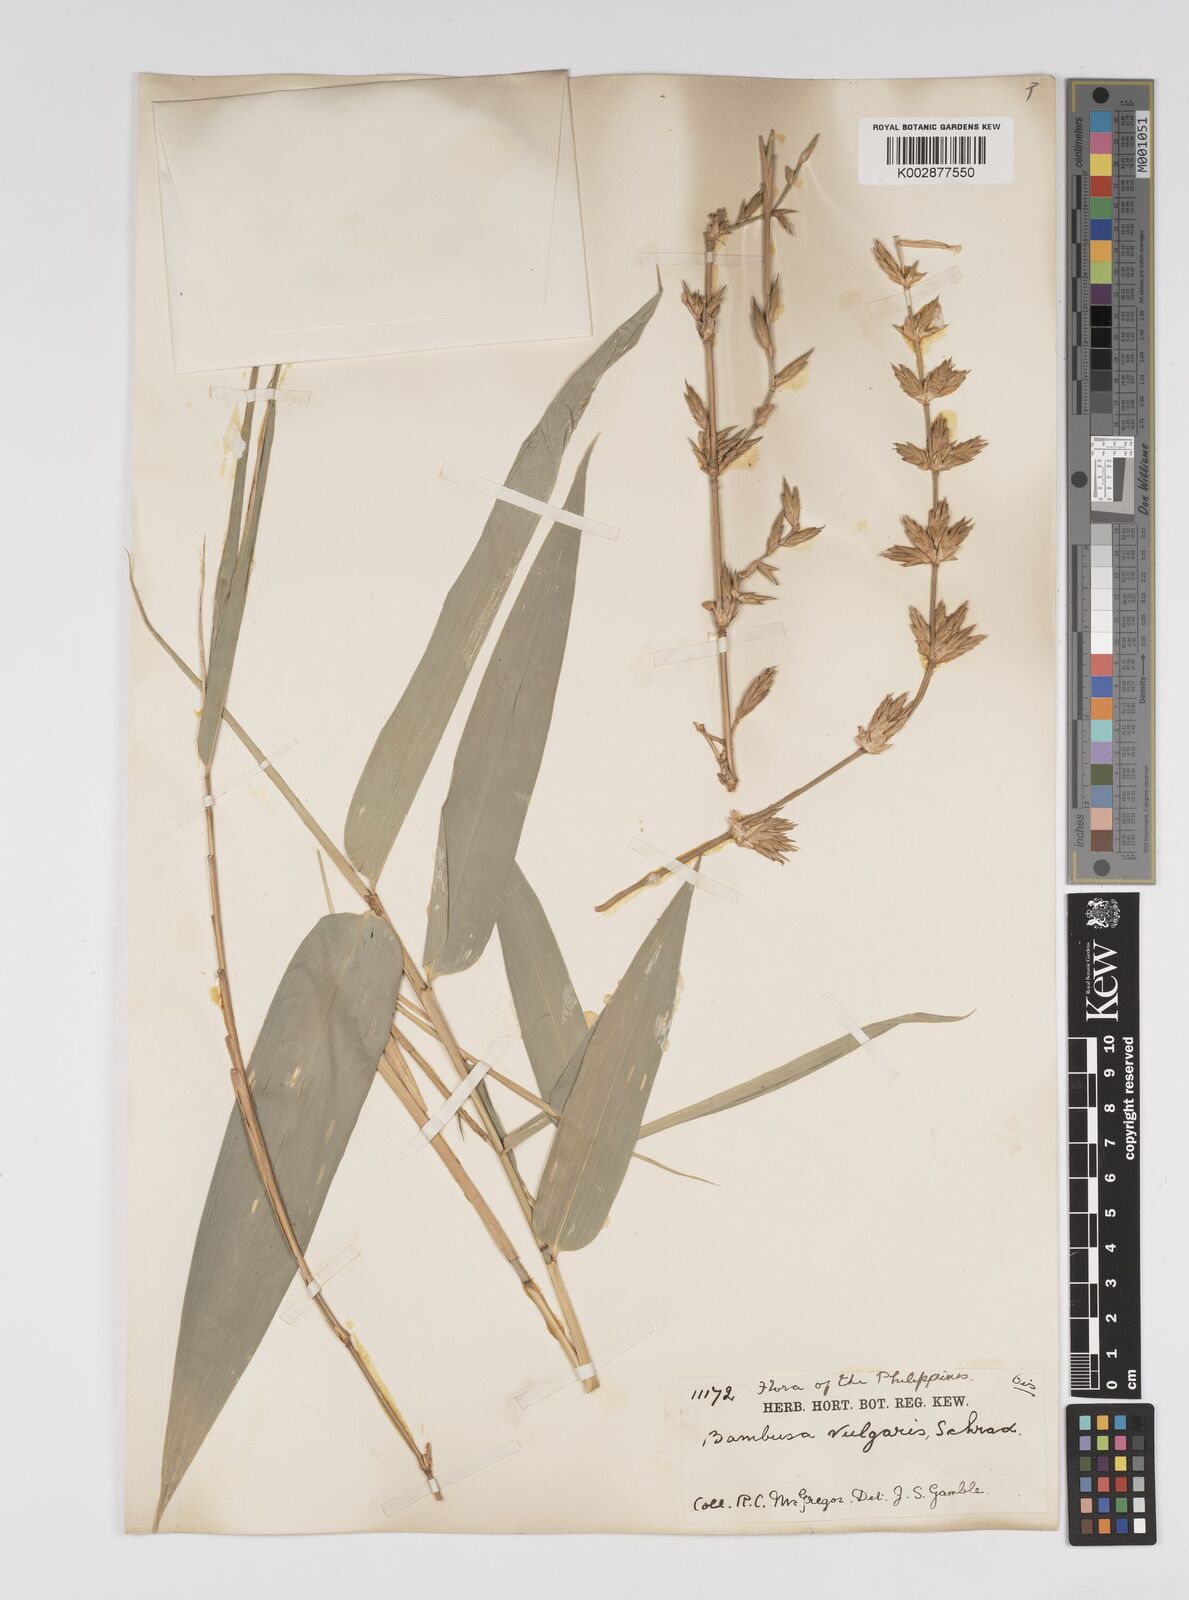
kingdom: Plantae
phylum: Tracheophyta
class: Liliopsida
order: Poales
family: Poaceae
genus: Bambusa
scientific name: Bambusa vulgaris
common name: Common bamboo
